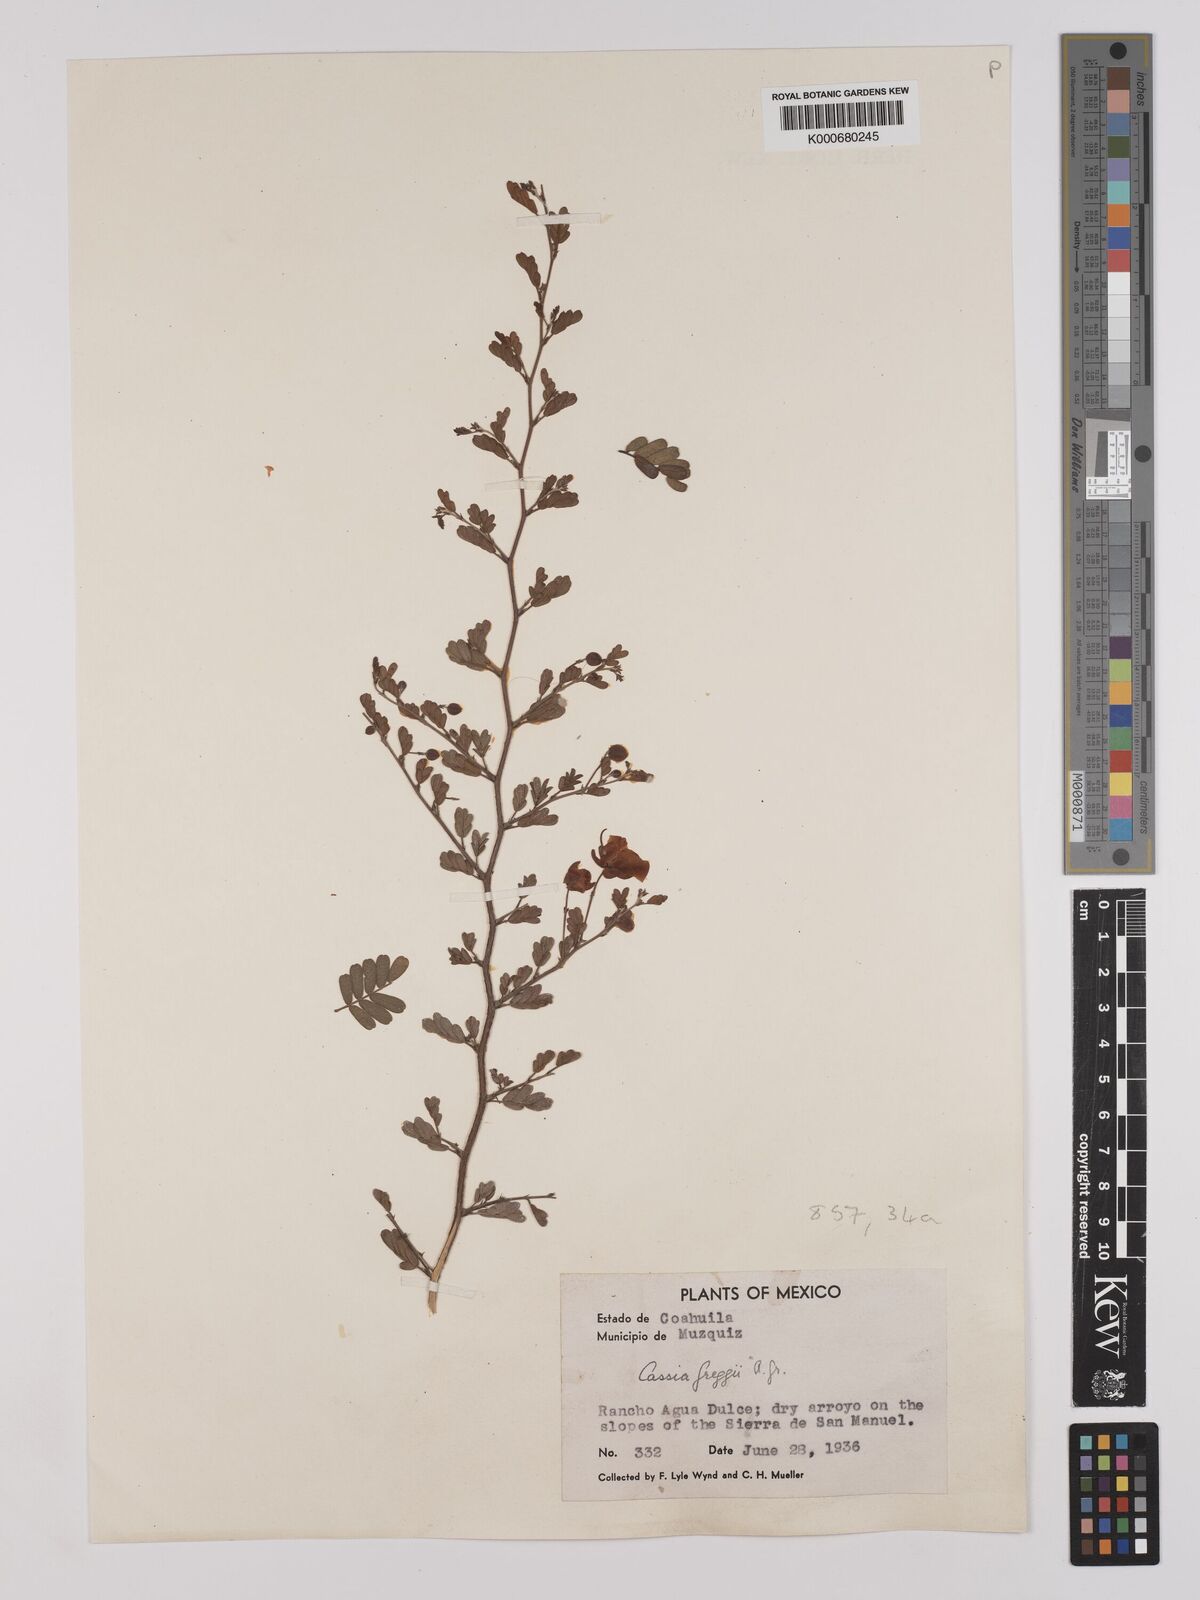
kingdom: Plantae
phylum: Tracheophyta
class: Magnoliopsida
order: Fabales
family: Fabaceae
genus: Chamaecrista
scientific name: Chamaecrista greggii
